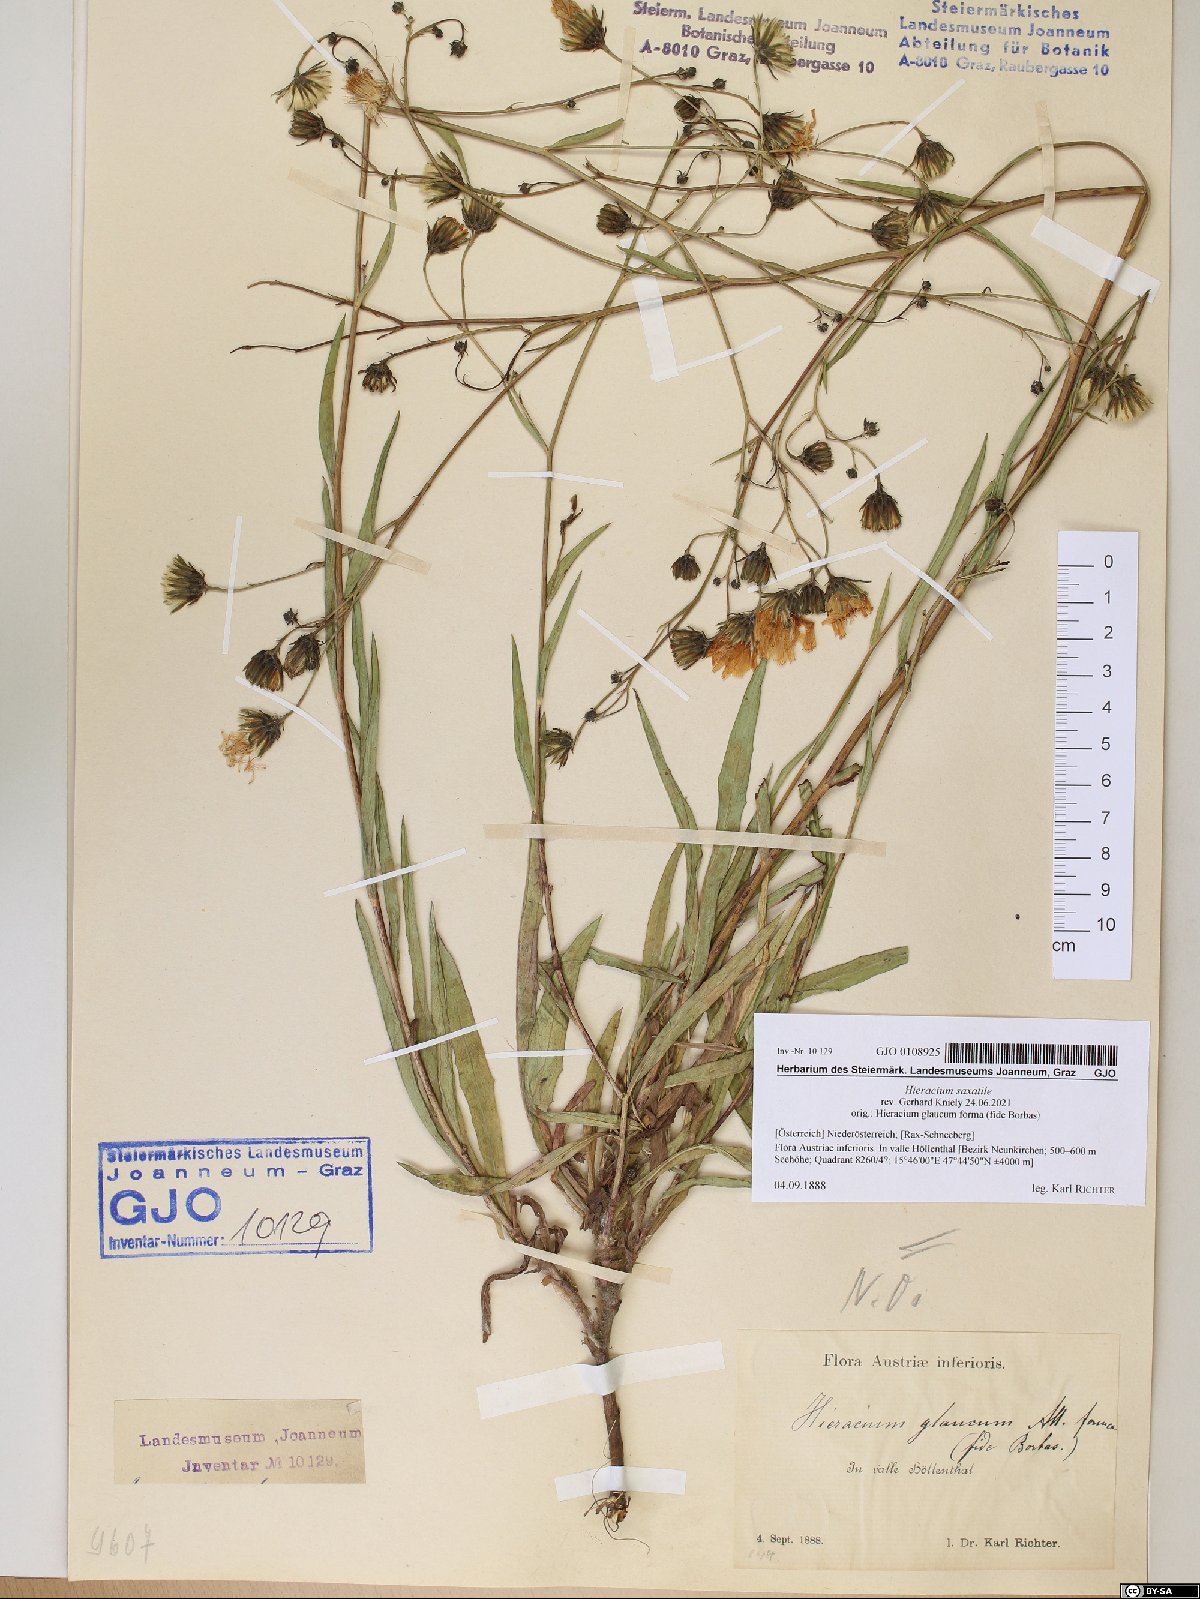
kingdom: Plantae
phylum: Tracheophyta
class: Magnoliopsida
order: Asterales
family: Asteraceae
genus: Hieracium
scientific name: Hieracium saxatile
